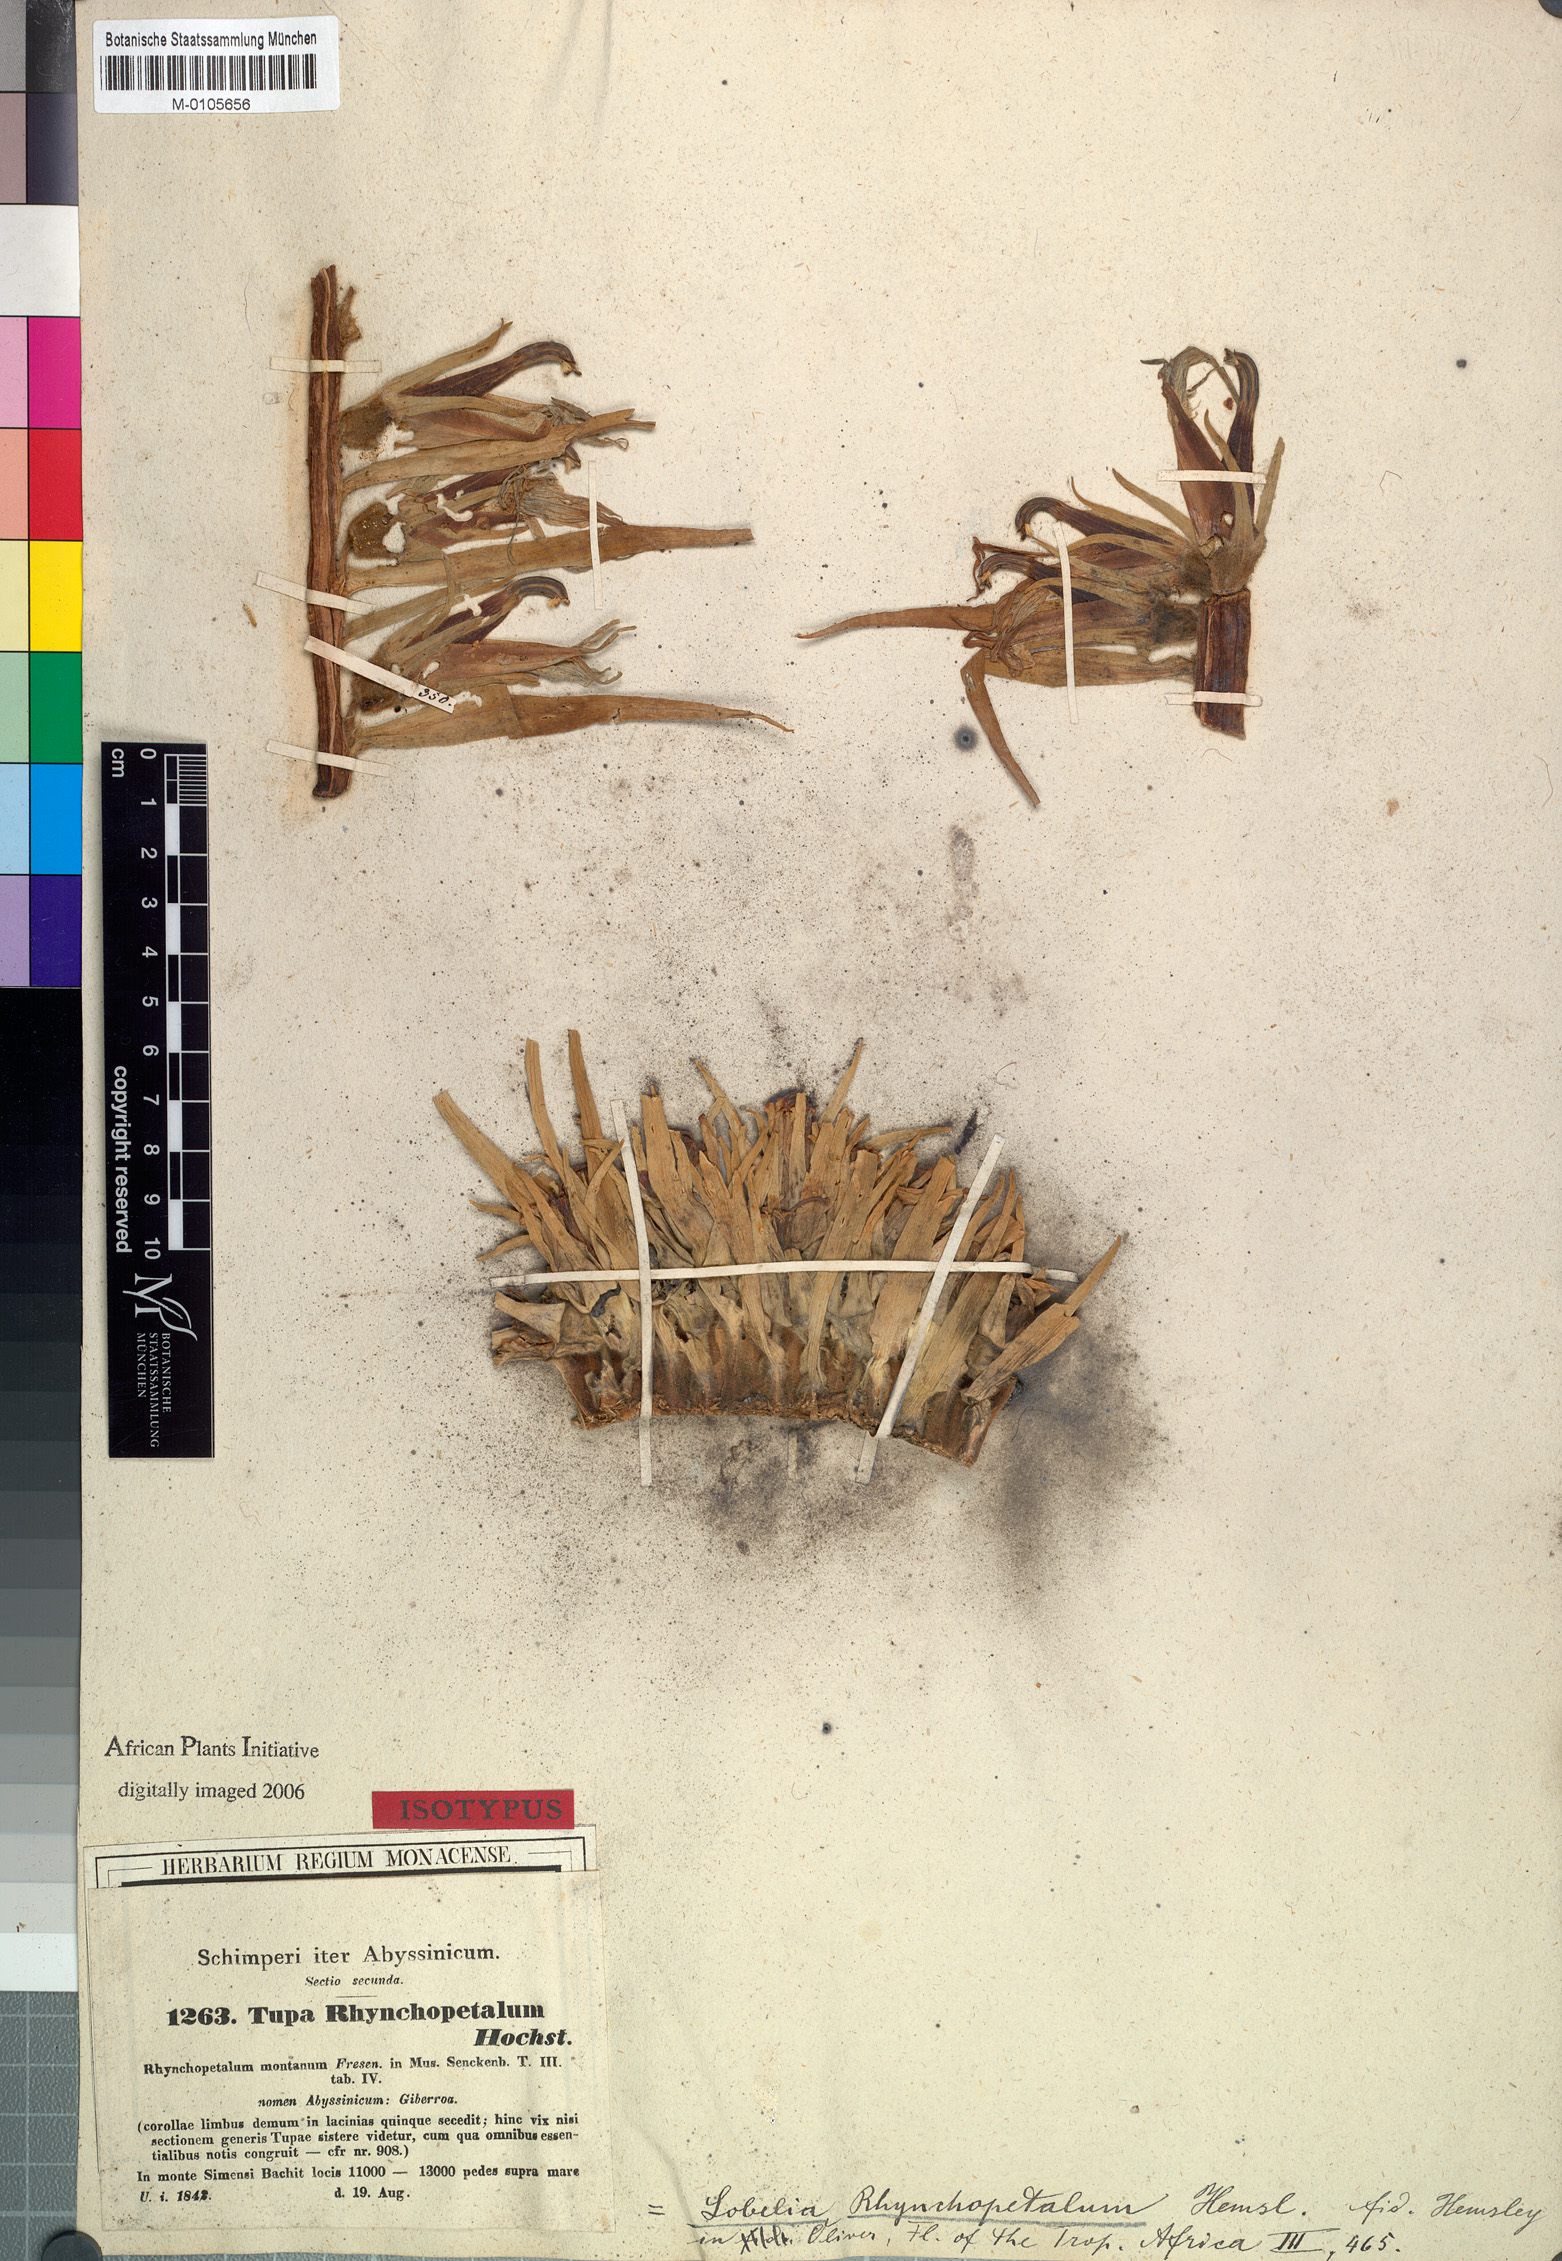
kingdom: Plantae
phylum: Tracheophyta
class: Magnoliopsida
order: Asterales
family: Campanulaceae
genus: Lobelia
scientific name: Lobelia rhynchopetalum
